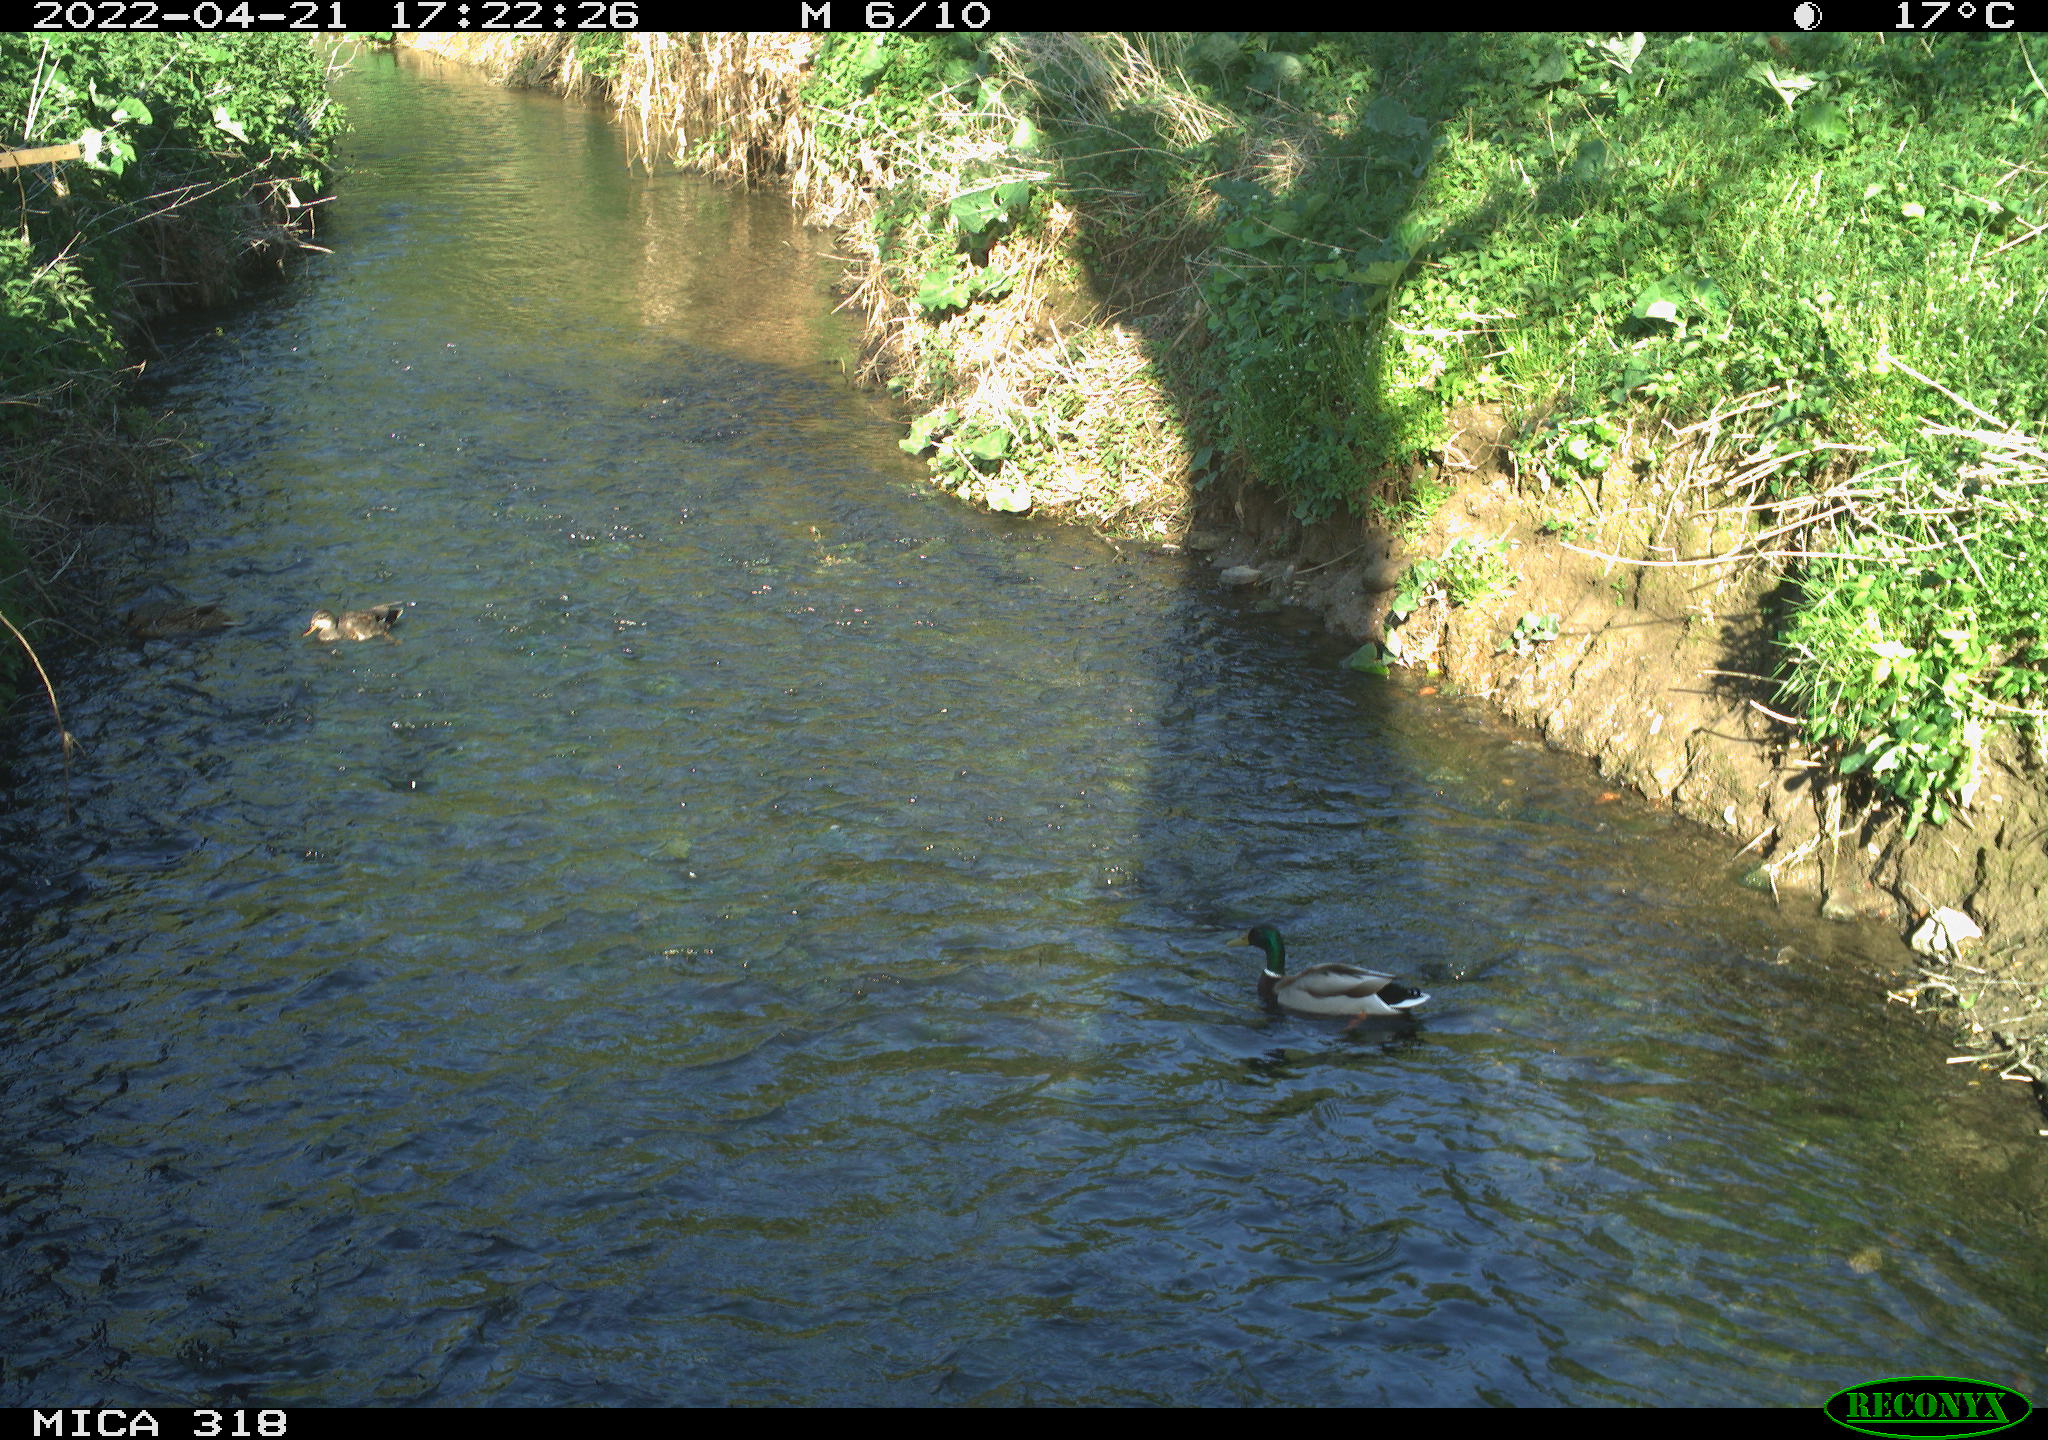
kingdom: Animalia
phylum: Chordata
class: Aves
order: Anseriformes
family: Anatidae
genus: Anas
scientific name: Anas platyrhynchos
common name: Mallard
